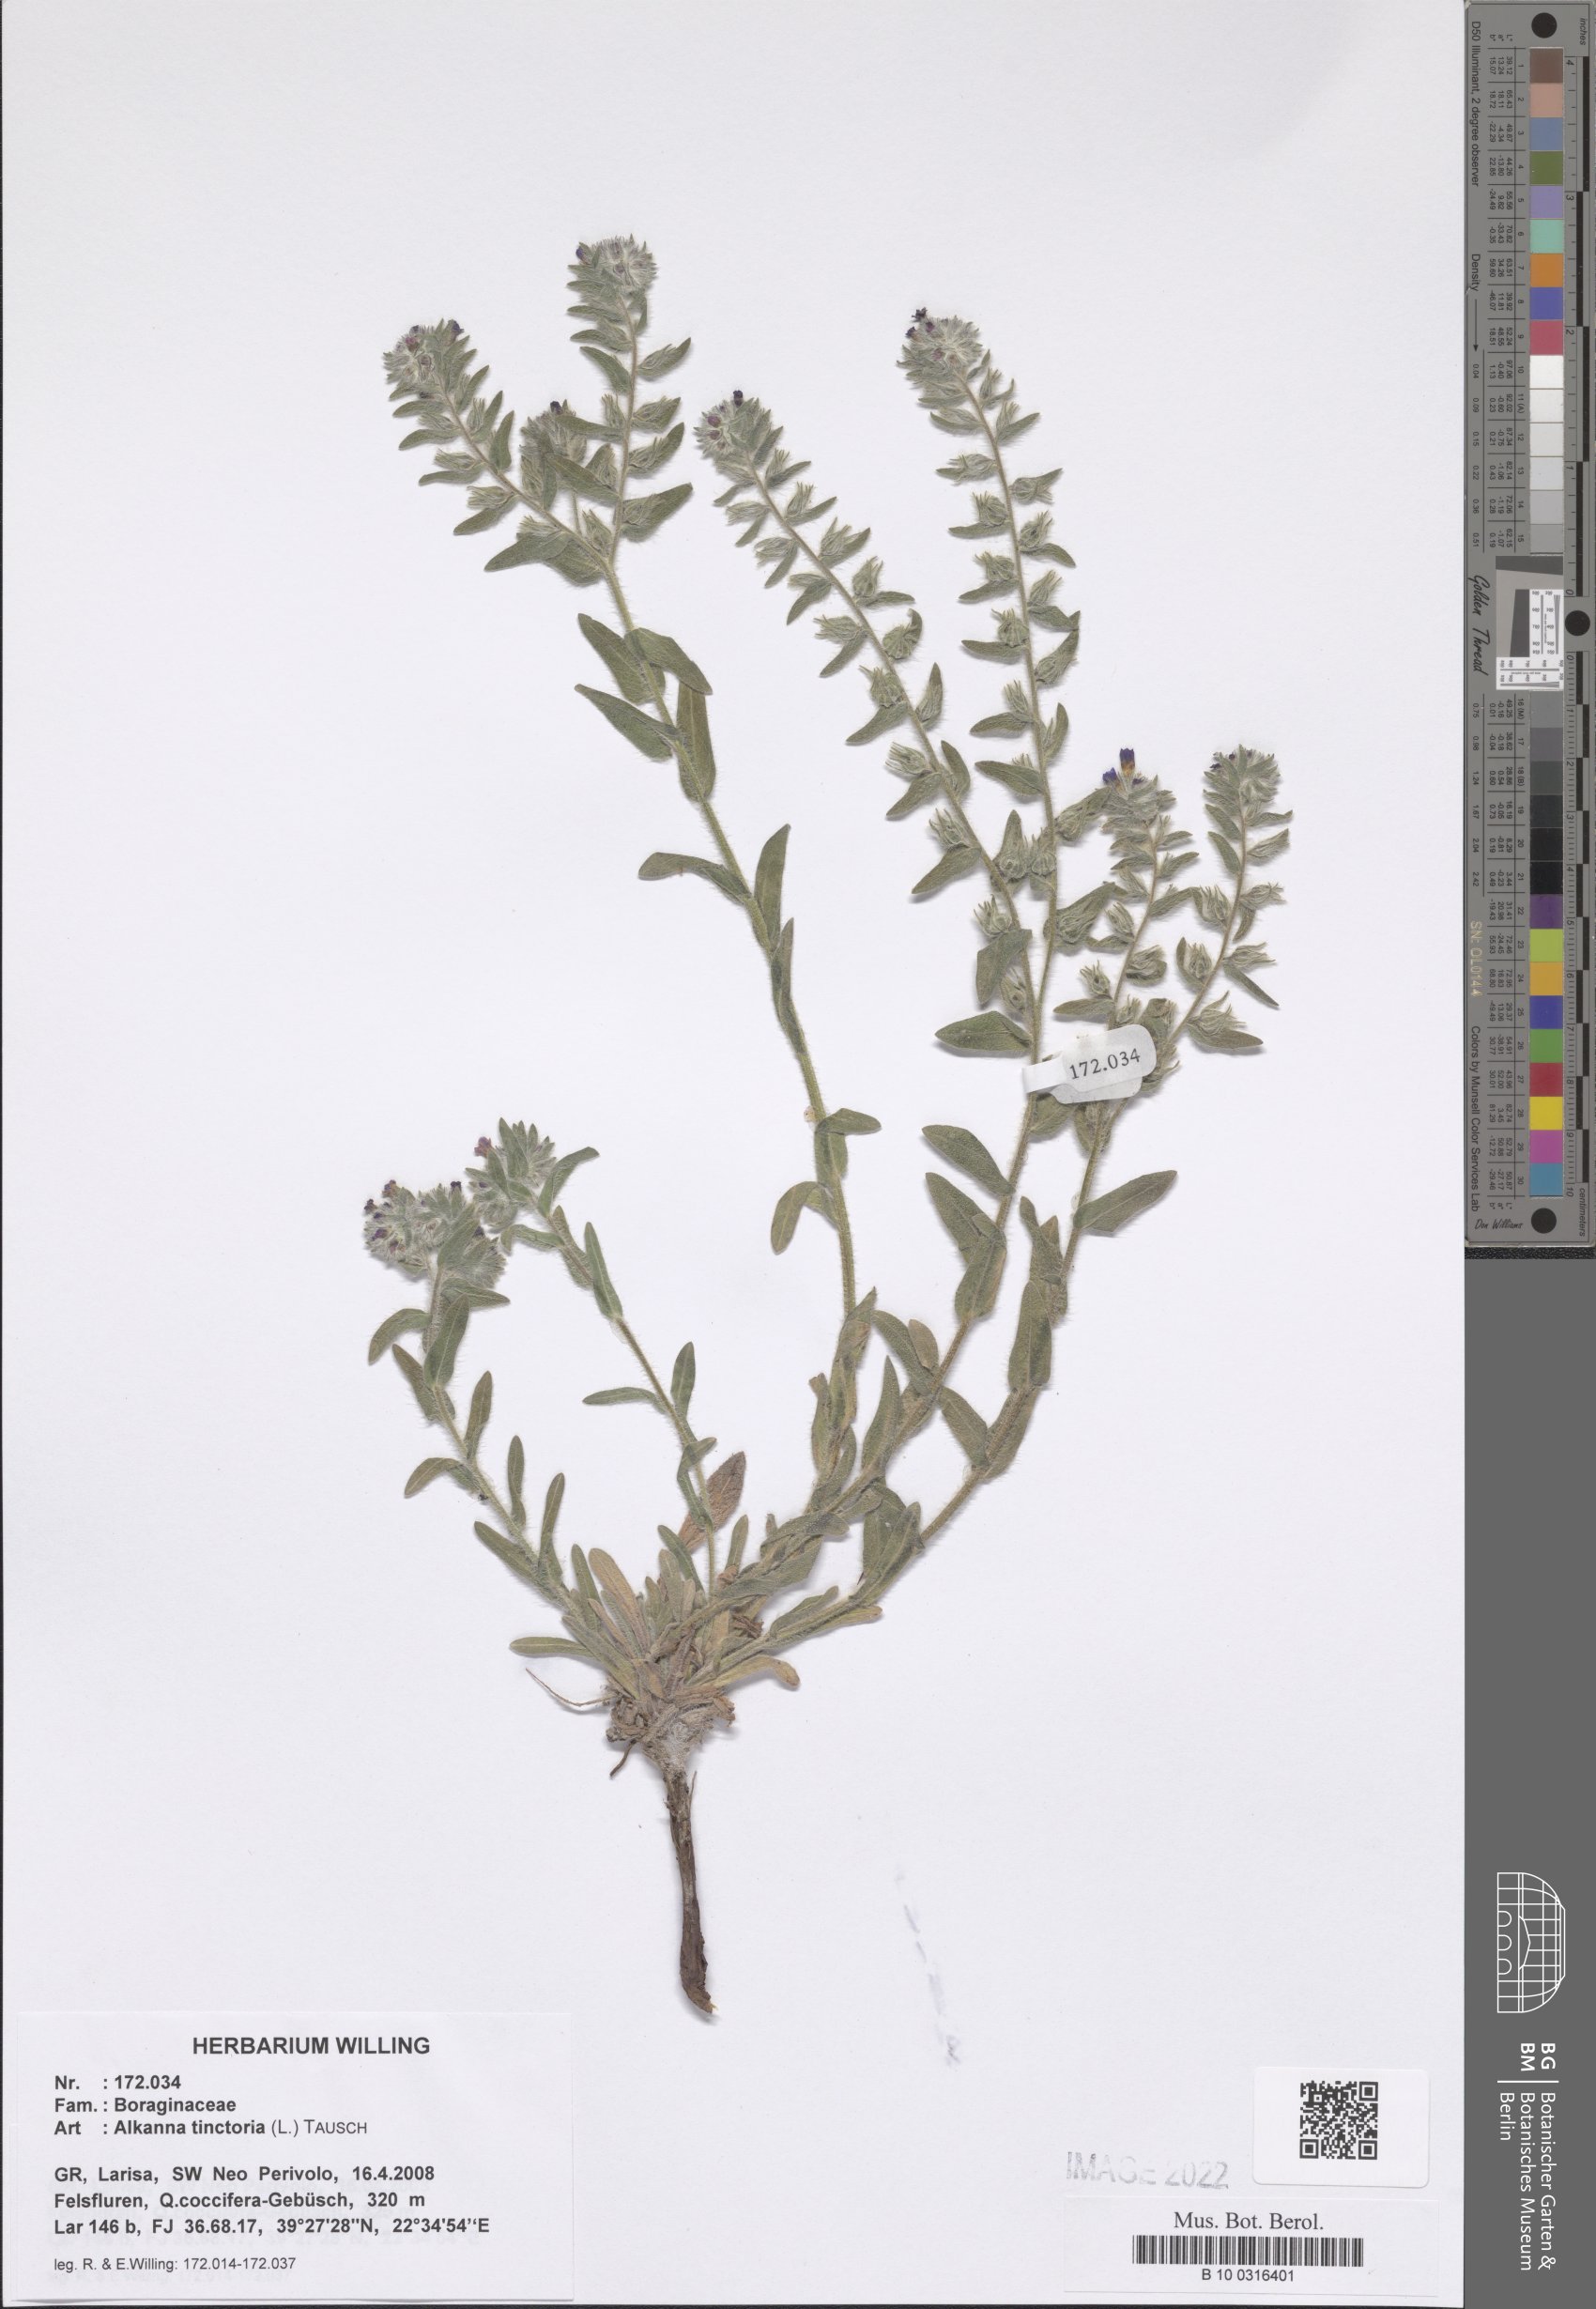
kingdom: Plantae
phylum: Tracheophyta
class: Magnoliopsida
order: Boraginales
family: Boraginaceae
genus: Alkanna
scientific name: Alkanna tinctoria
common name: Dyer's-alkanet
